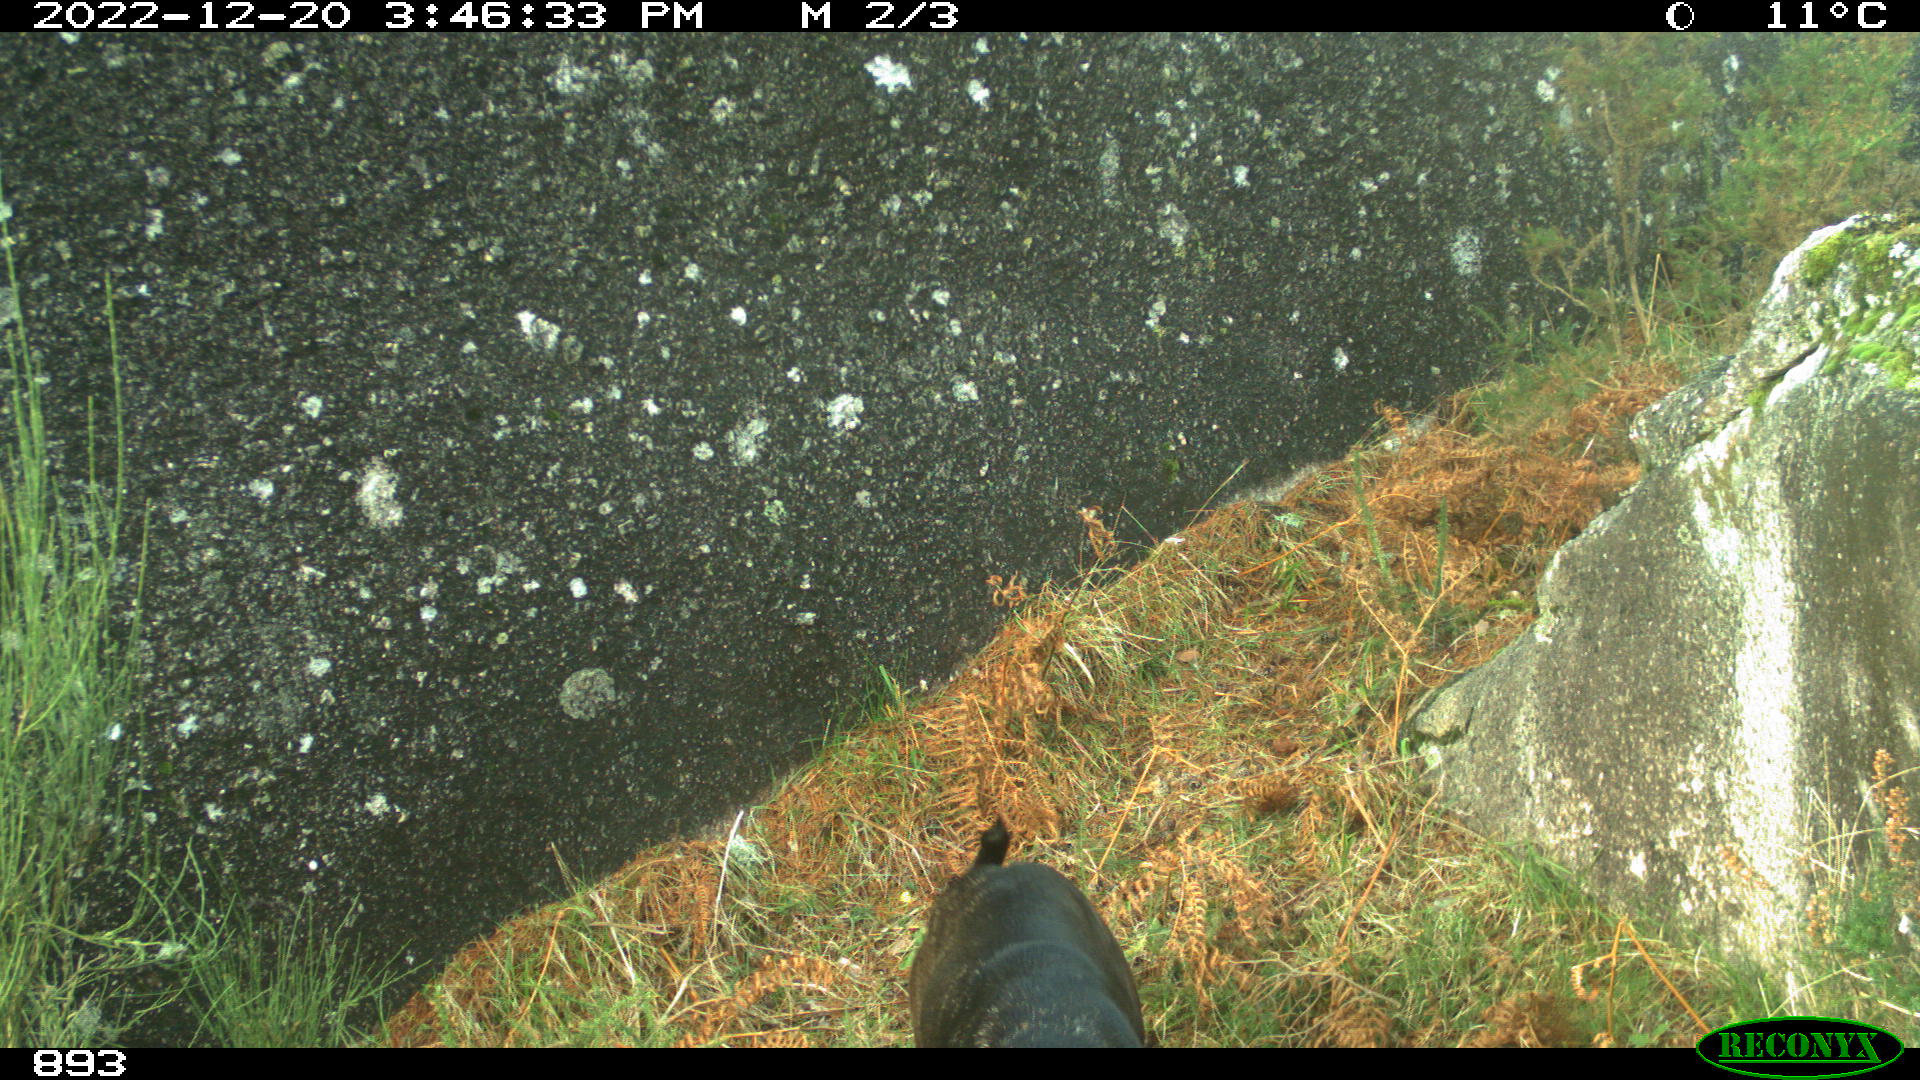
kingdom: Animalia
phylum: Chordata
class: Mammalia
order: Carnivora
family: Canidae
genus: Canis
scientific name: Canis lupus
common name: Gray wolf
